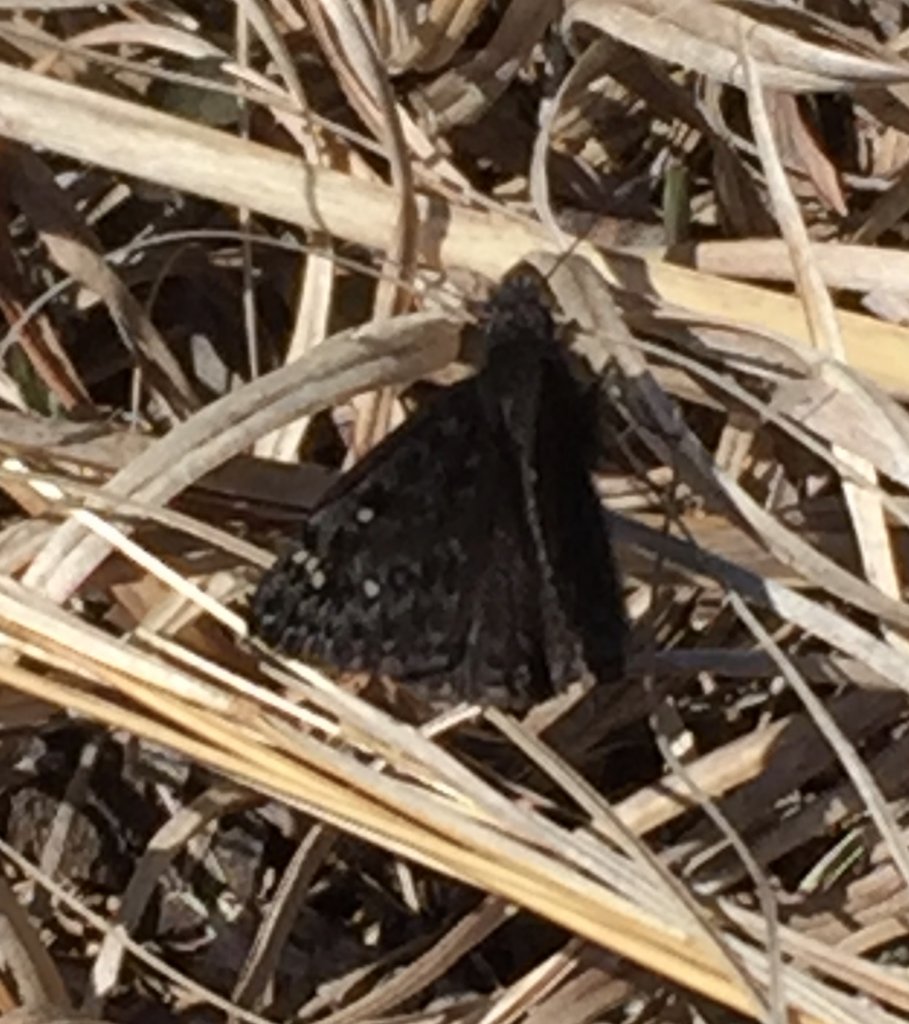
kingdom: Animalia
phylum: Arthropoda
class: Insecta
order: Lepidoptera
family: Hesperiidae
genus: Gesta
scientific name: Gesta
